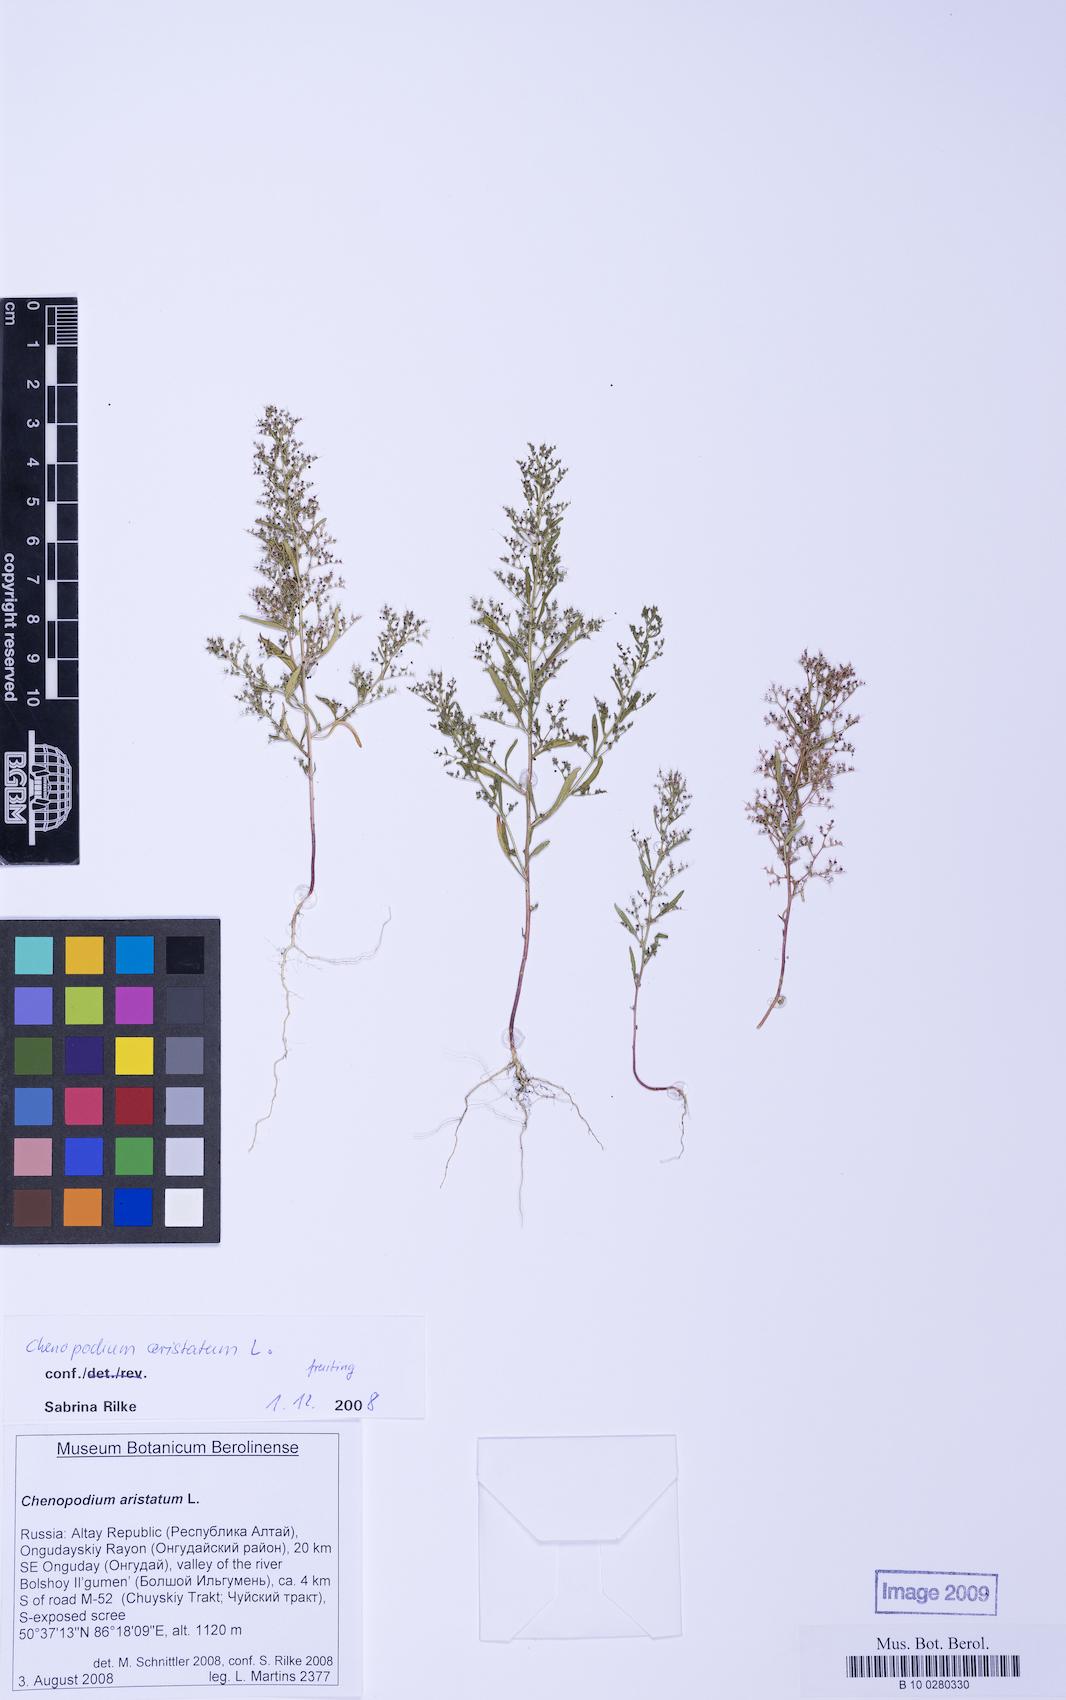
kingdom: Plantae
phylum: Tracheophyta
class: Magnoliopsida
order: Caryophyllales
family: Amaranthaceae
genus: Teloxys
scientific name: Teloxys aristata
